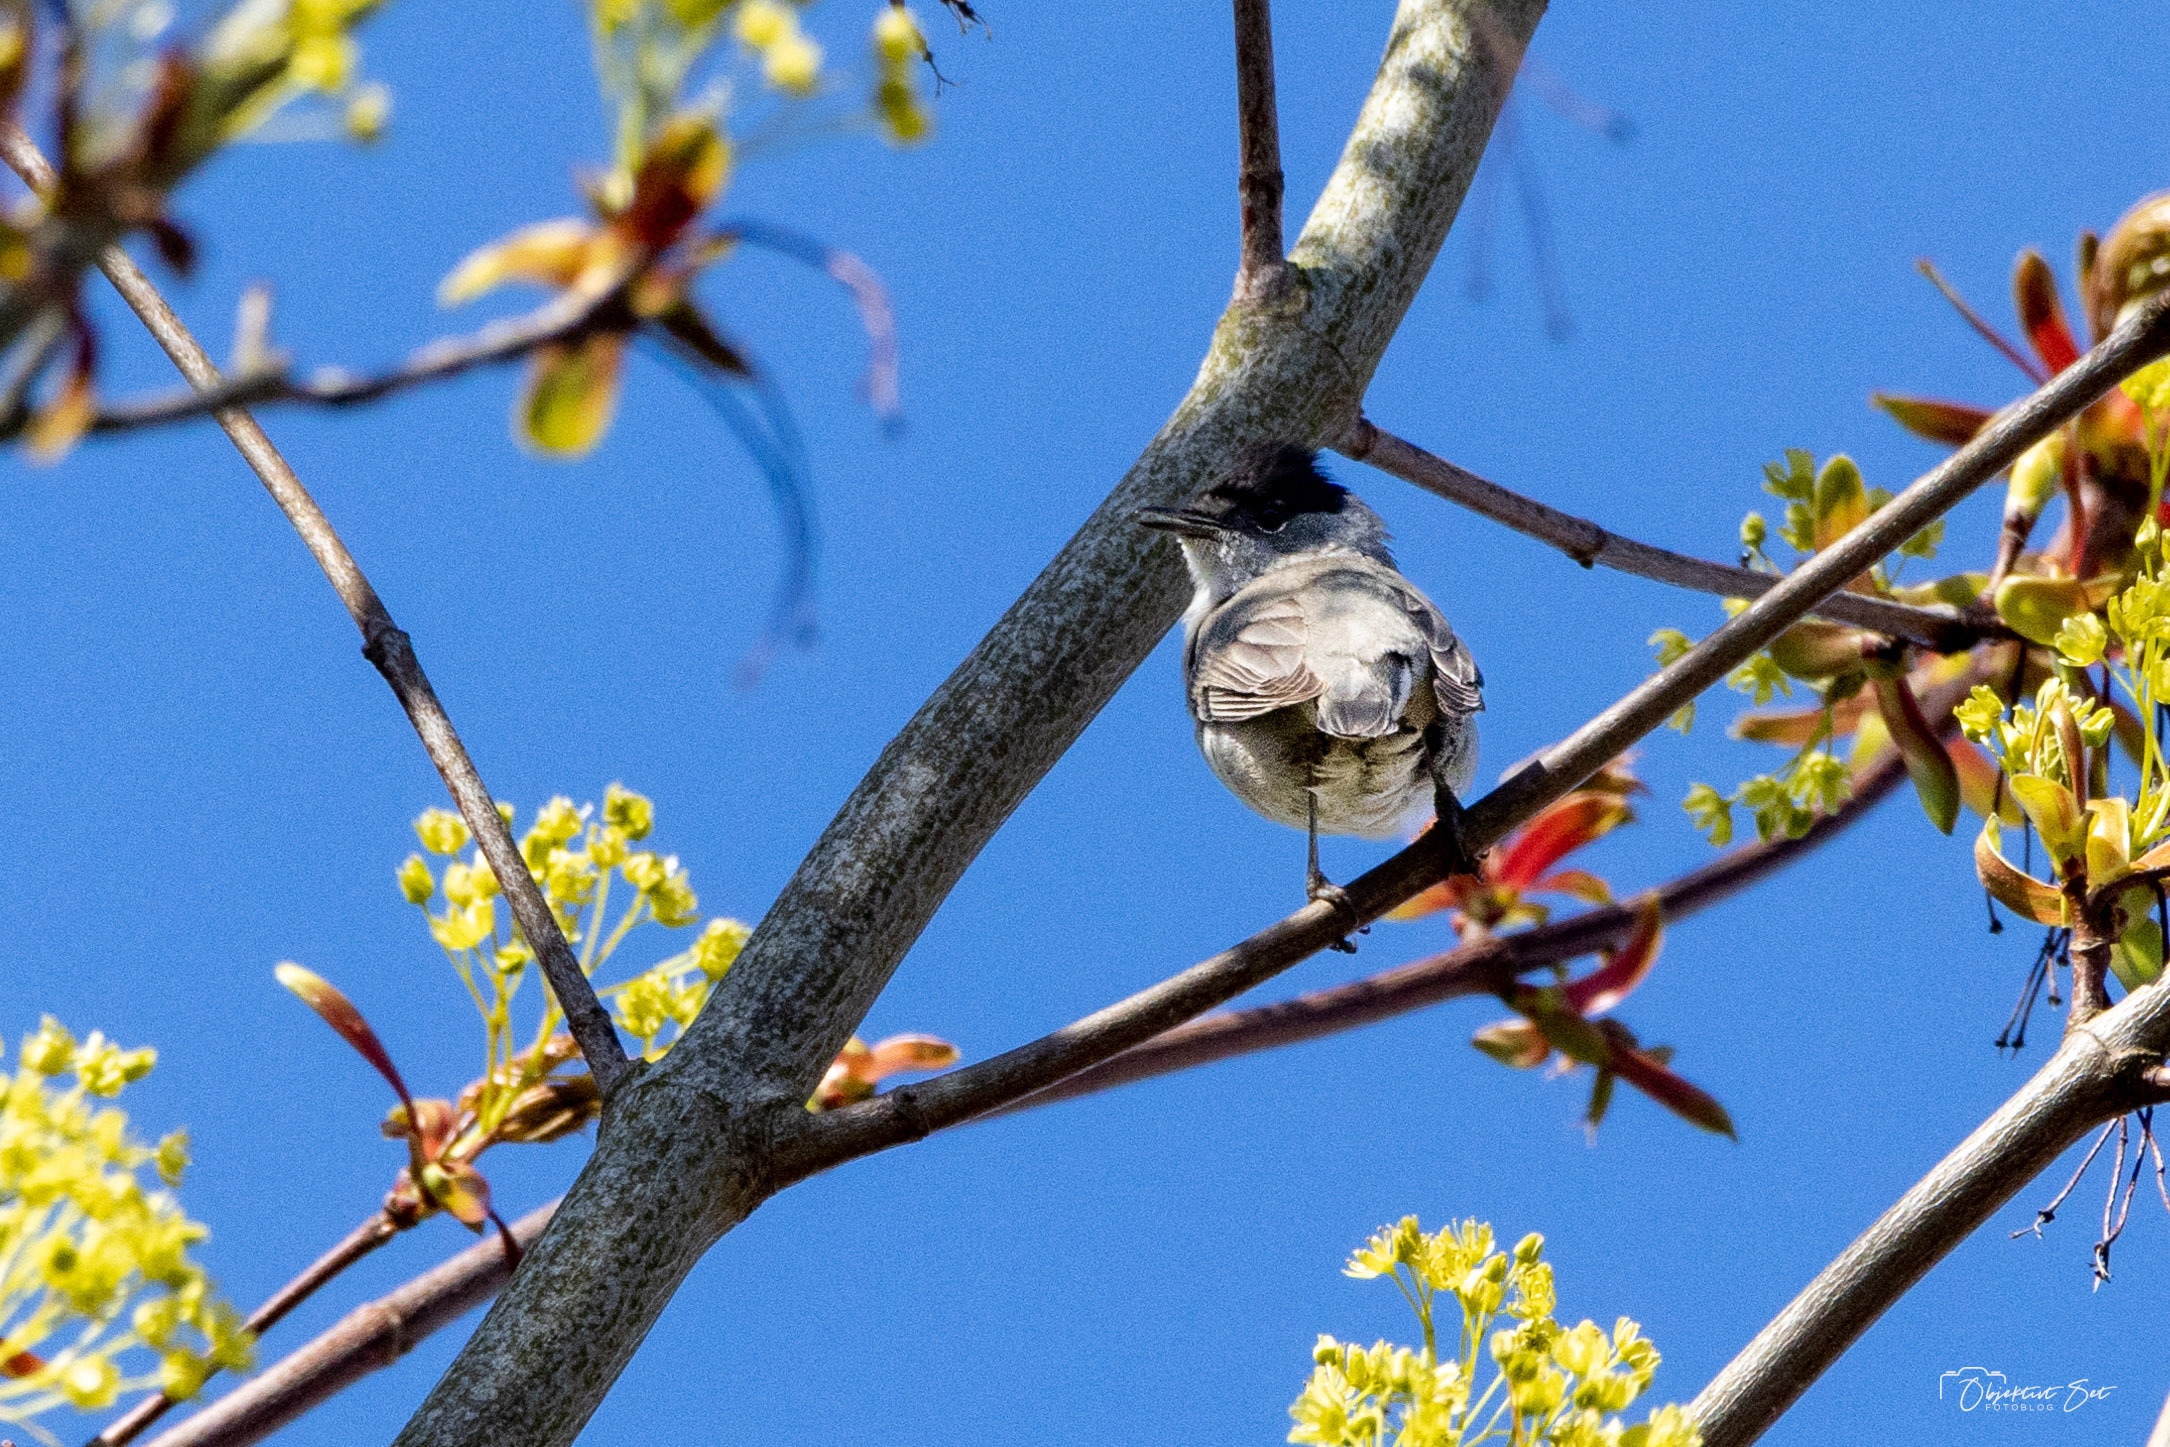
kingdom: Animalia
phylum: Chordata
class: Aves
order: Passeriformes
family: Sylviidae
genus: Sylvia
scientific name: Sylvia atricapilla
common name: Munk
